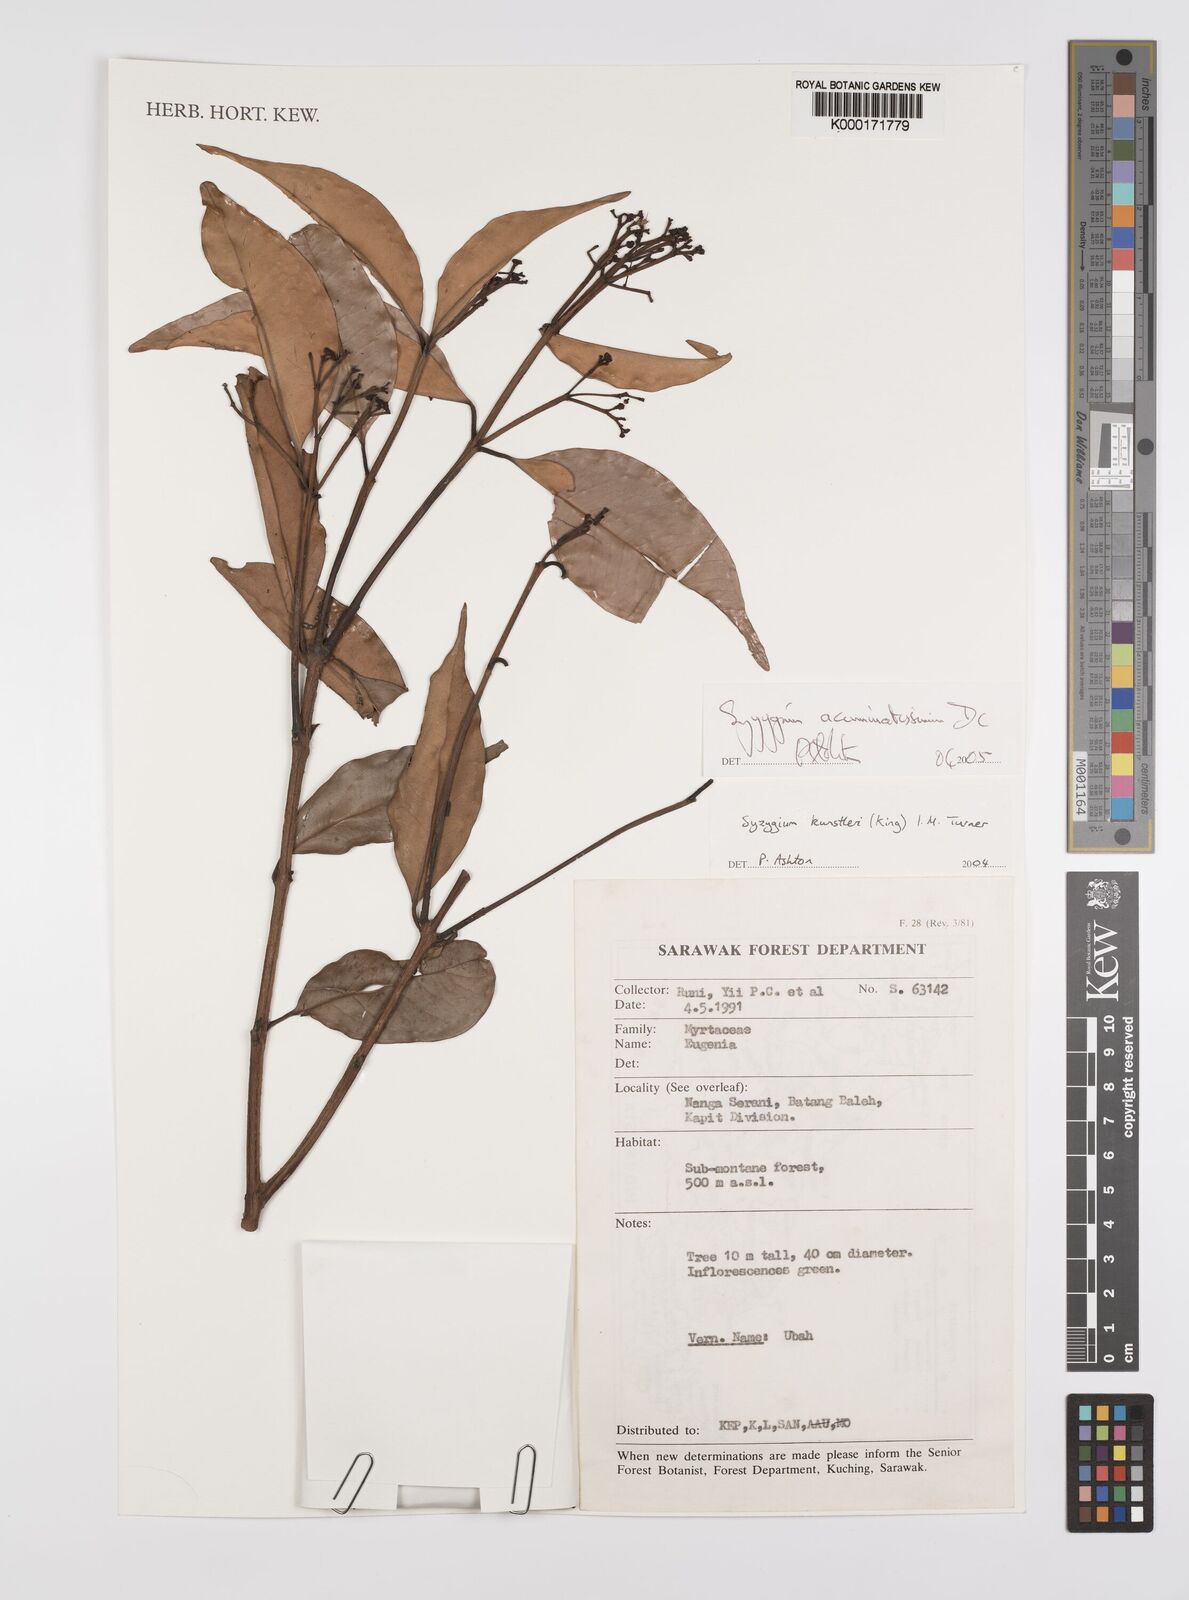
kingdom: Plantae
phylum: Tracheophyta
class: Magnoliopsida
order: Myrtales
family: Myrtaceae
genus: Syzygium
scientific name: Syzygium
